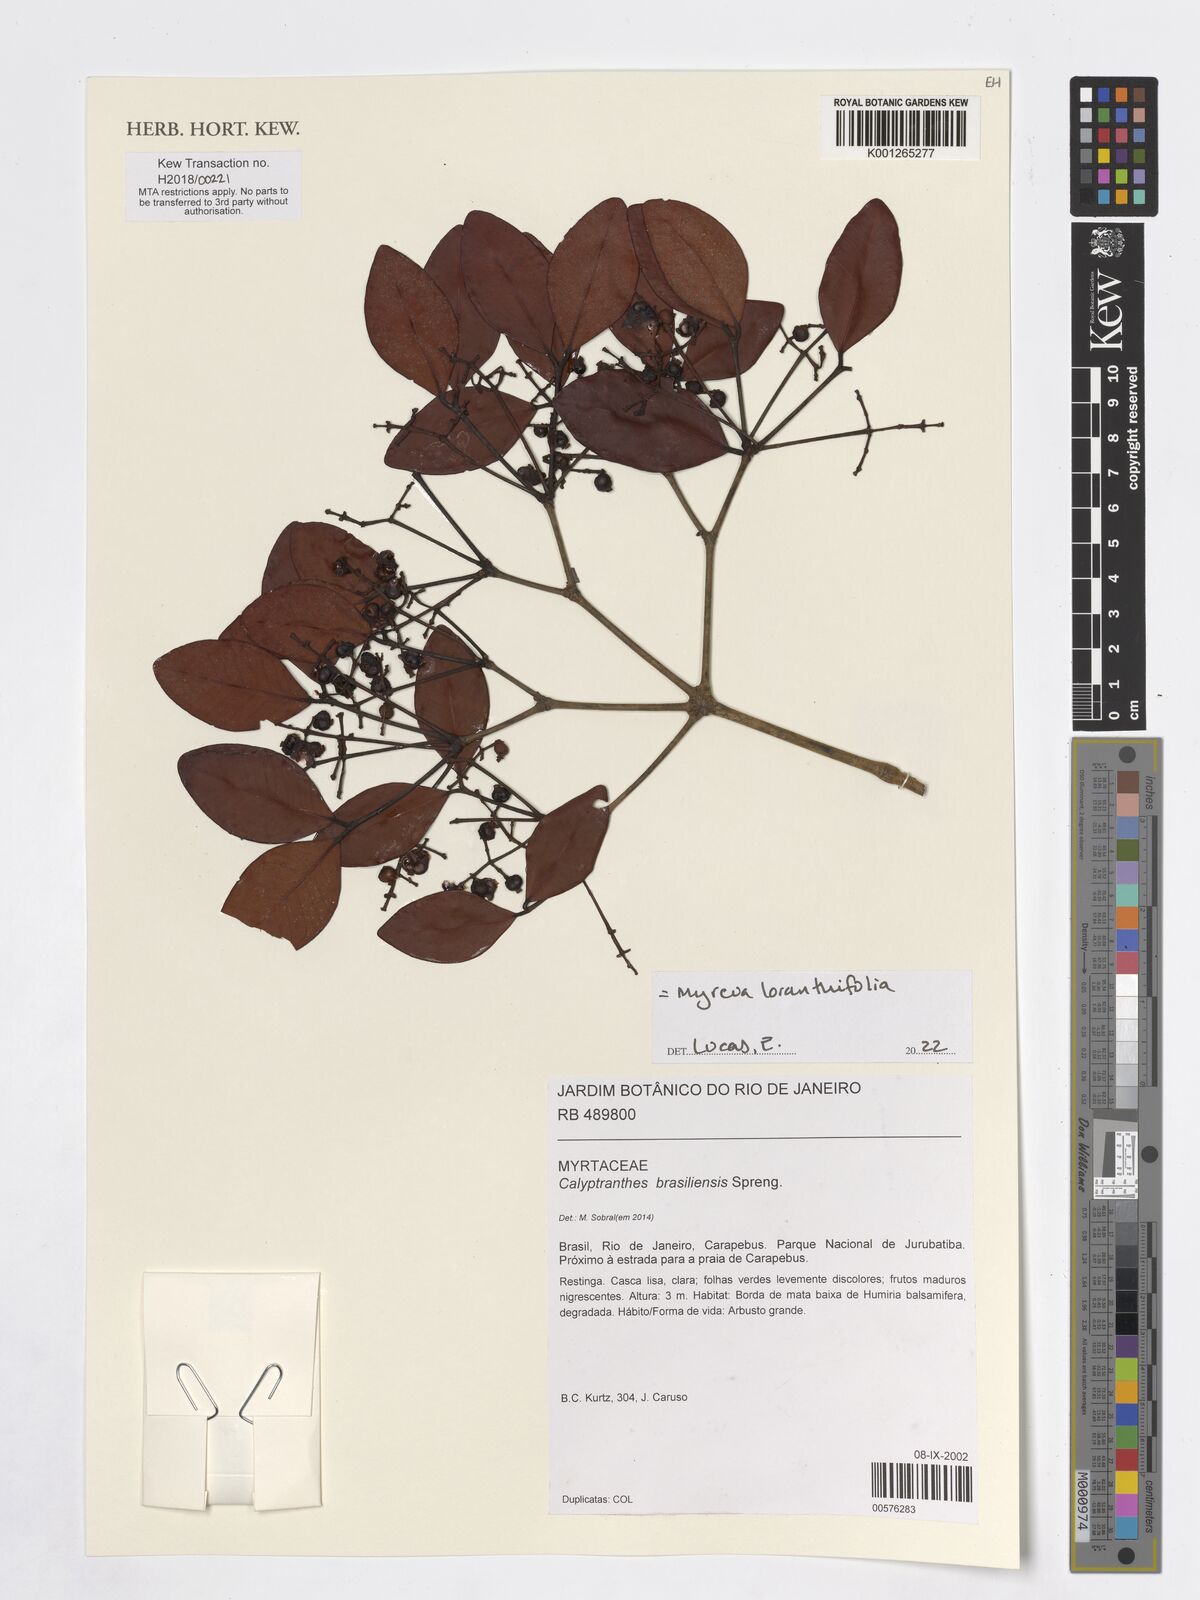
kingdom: Plantae
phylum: Tracheophyta
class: Magnoliopsida
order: Myrtales
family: Myrtaceae
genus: Myrcia
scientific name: Myrcia neobrasiliensis
